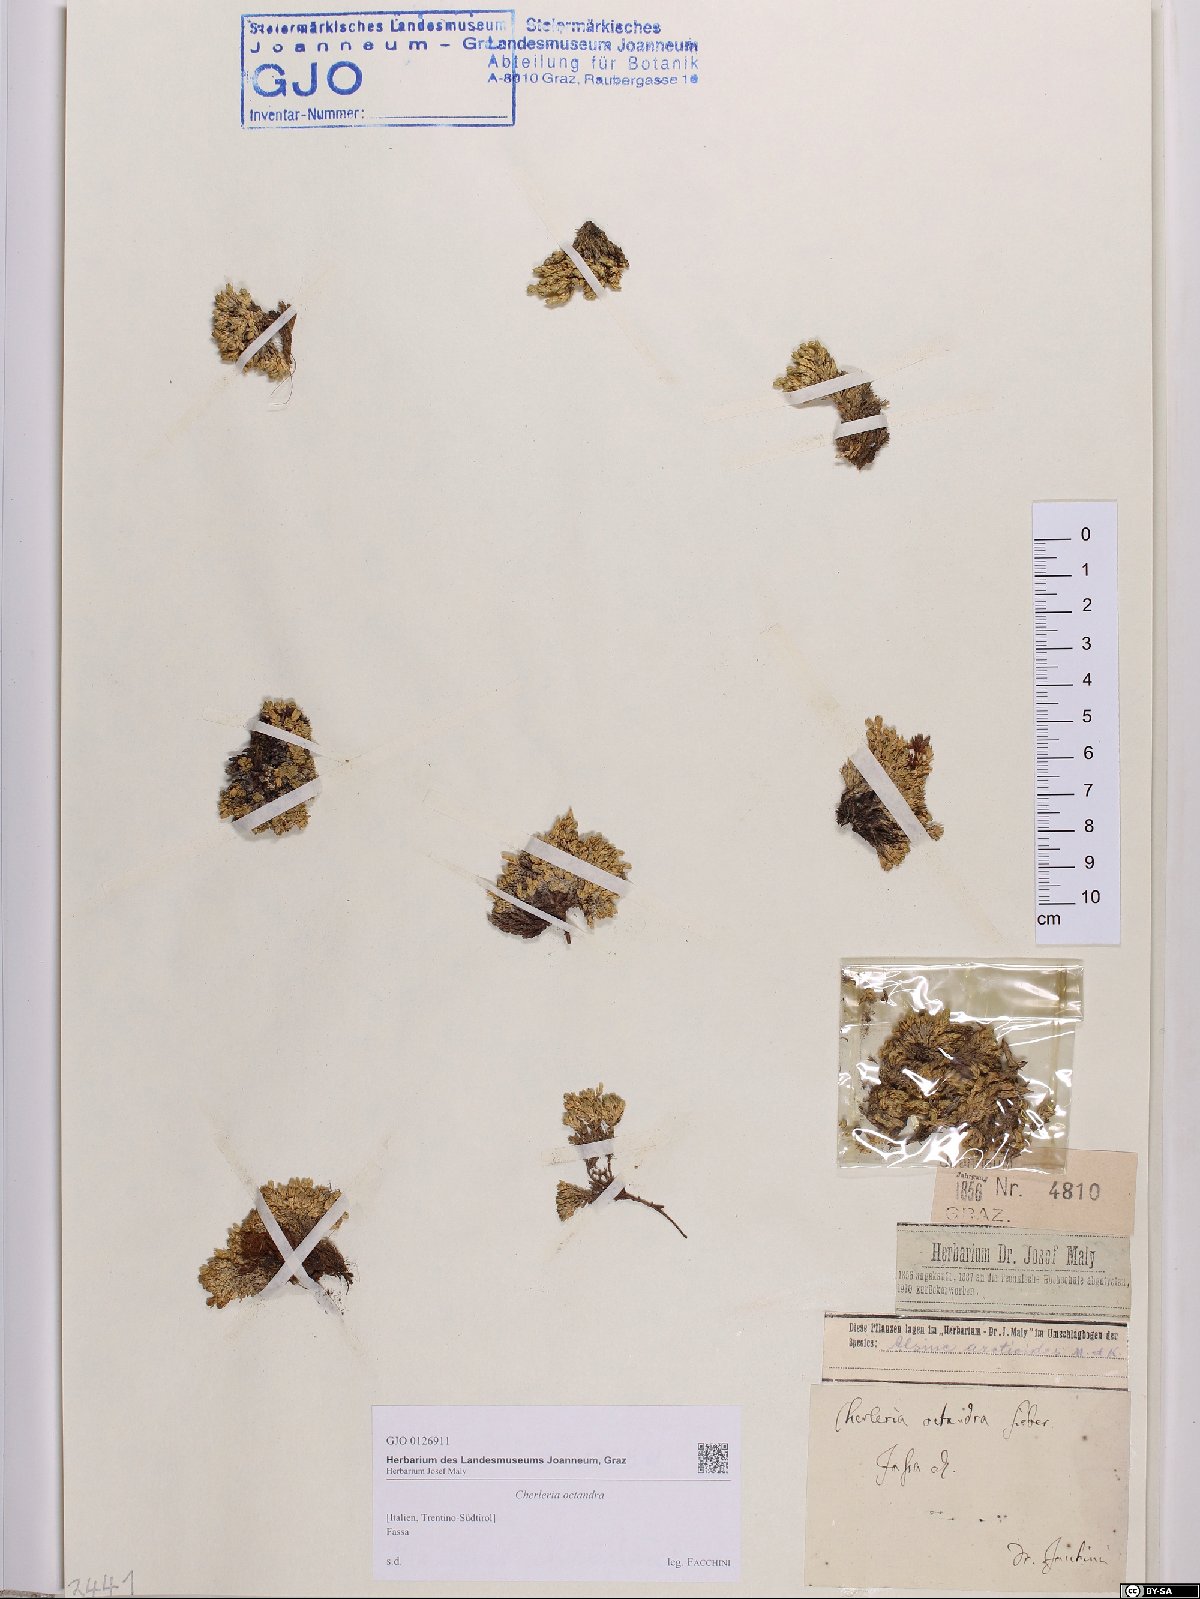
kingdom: Plantae
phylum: Tracheophyta
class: Magnoliopsida
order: Caryophyllales
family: Caryophyllaceae
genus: Facchinia
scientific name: Facchinia cherlerioides
